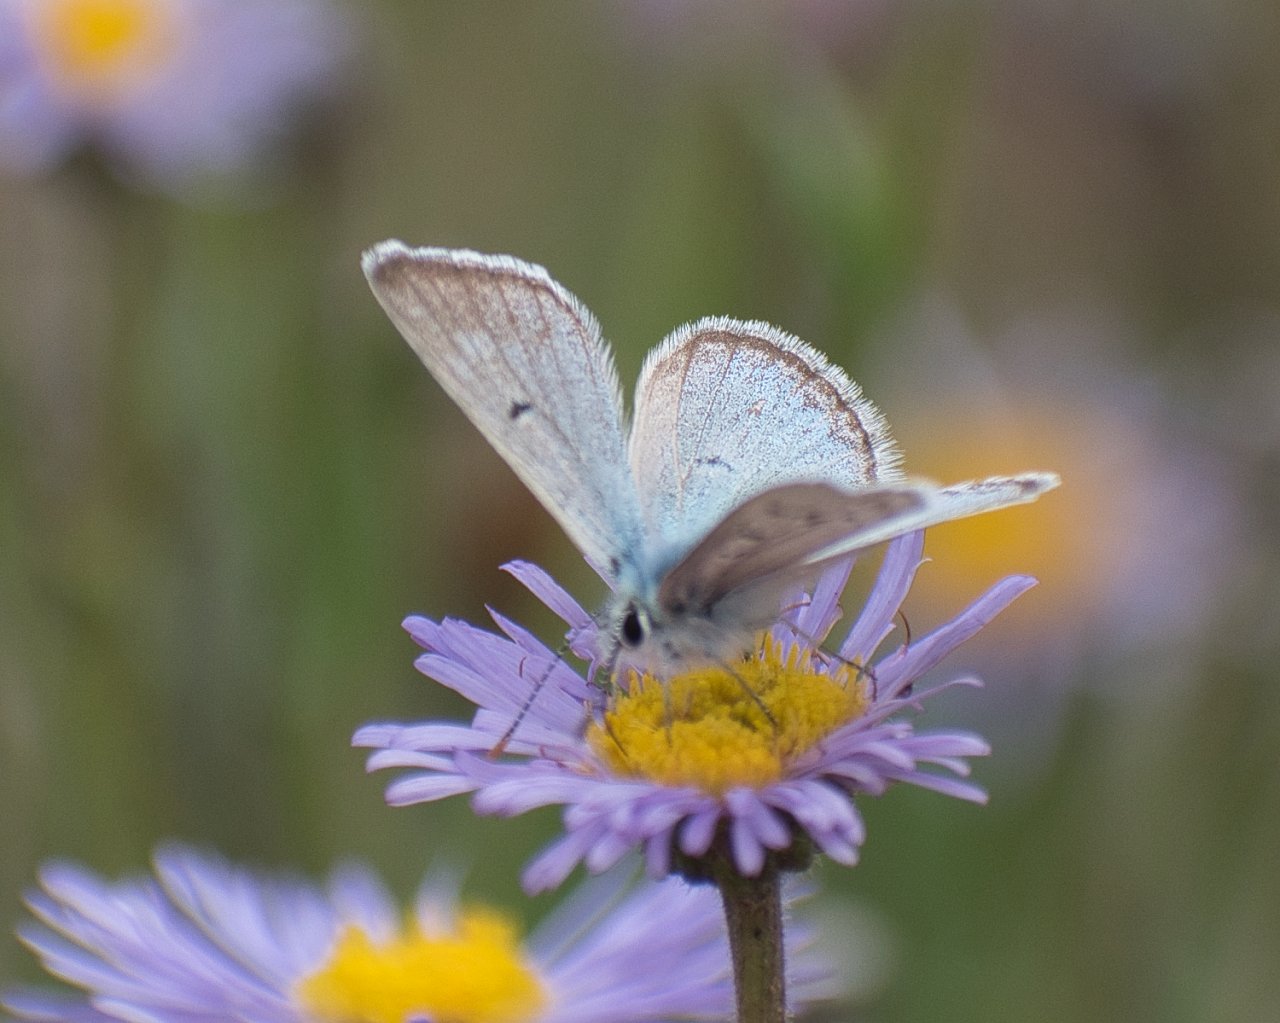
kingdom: Animalia
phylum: Arthropoda
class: Insecta
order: Lepidoptera
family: Lycaenidae
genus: Plebejus
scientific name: Plebejus
